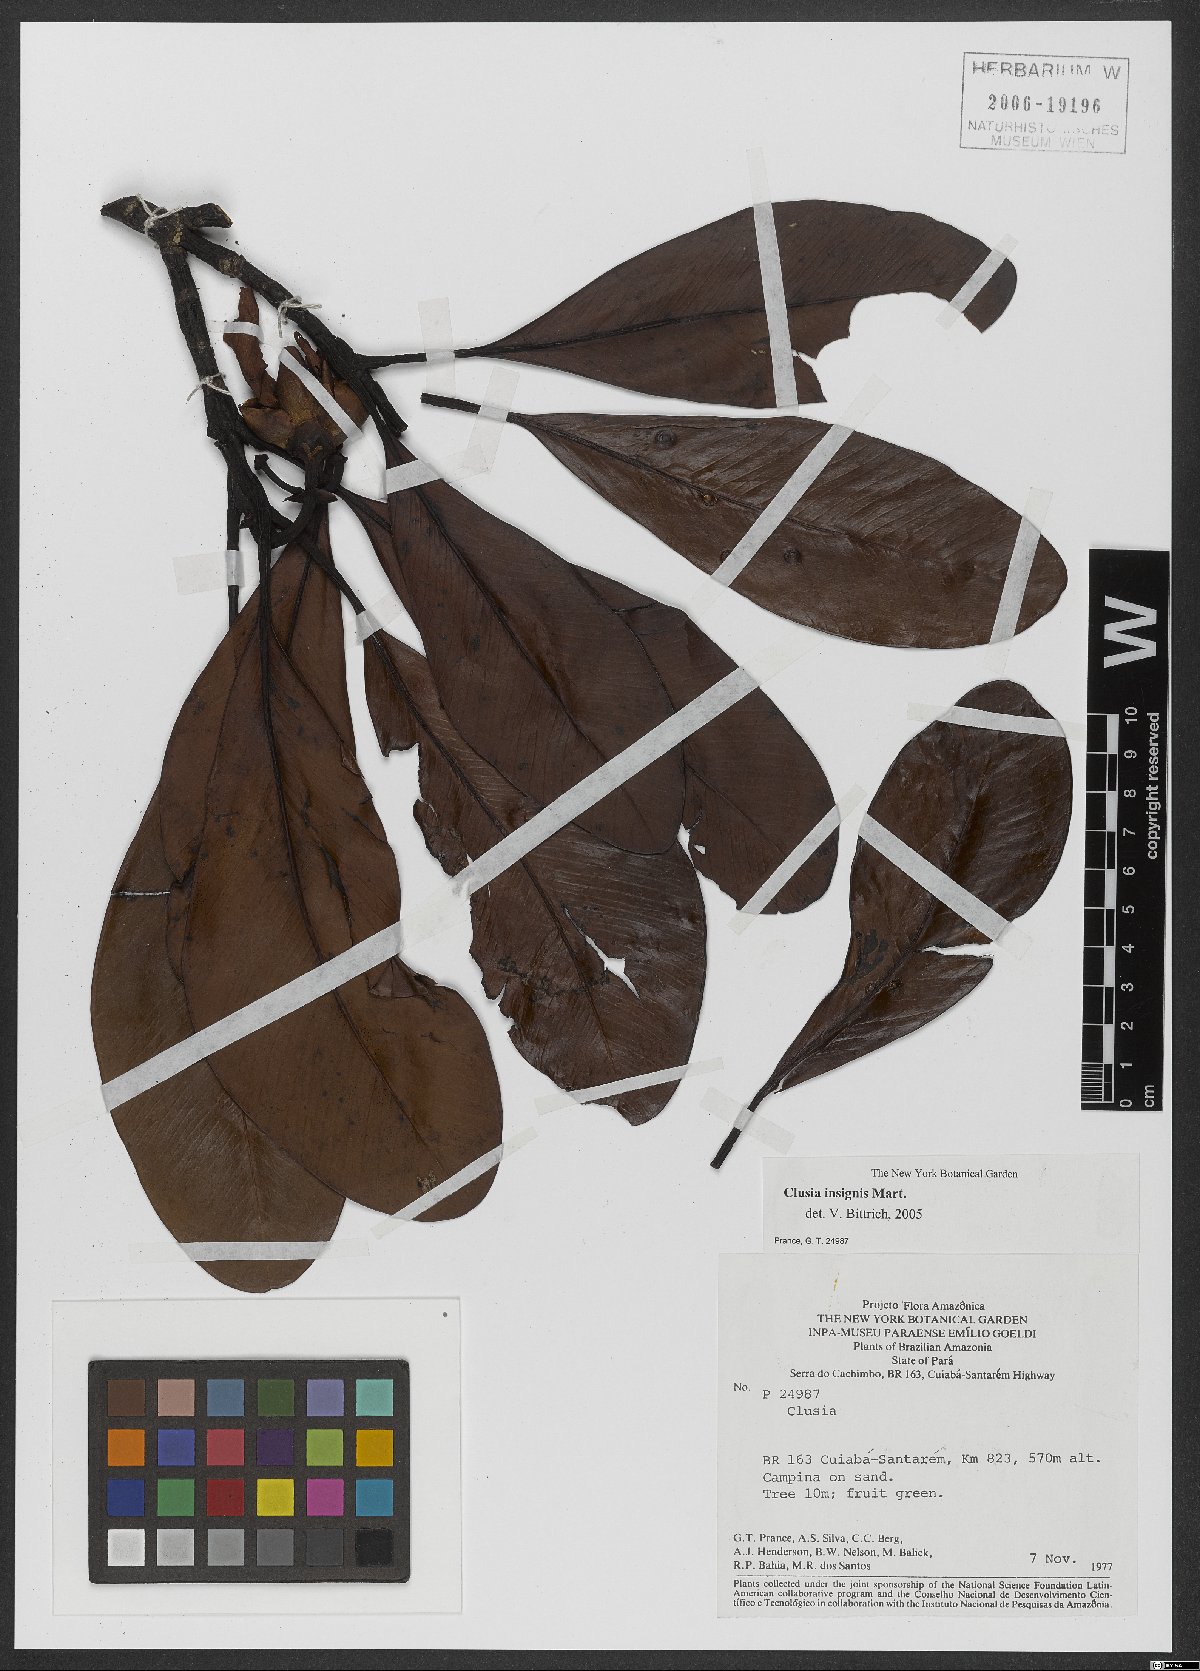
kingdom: Plantae
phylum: Tracheophyta
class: Magnoliopsida
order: Malpighiales
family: Clusiaceae
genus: Clusia
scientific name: Clusia insignis
